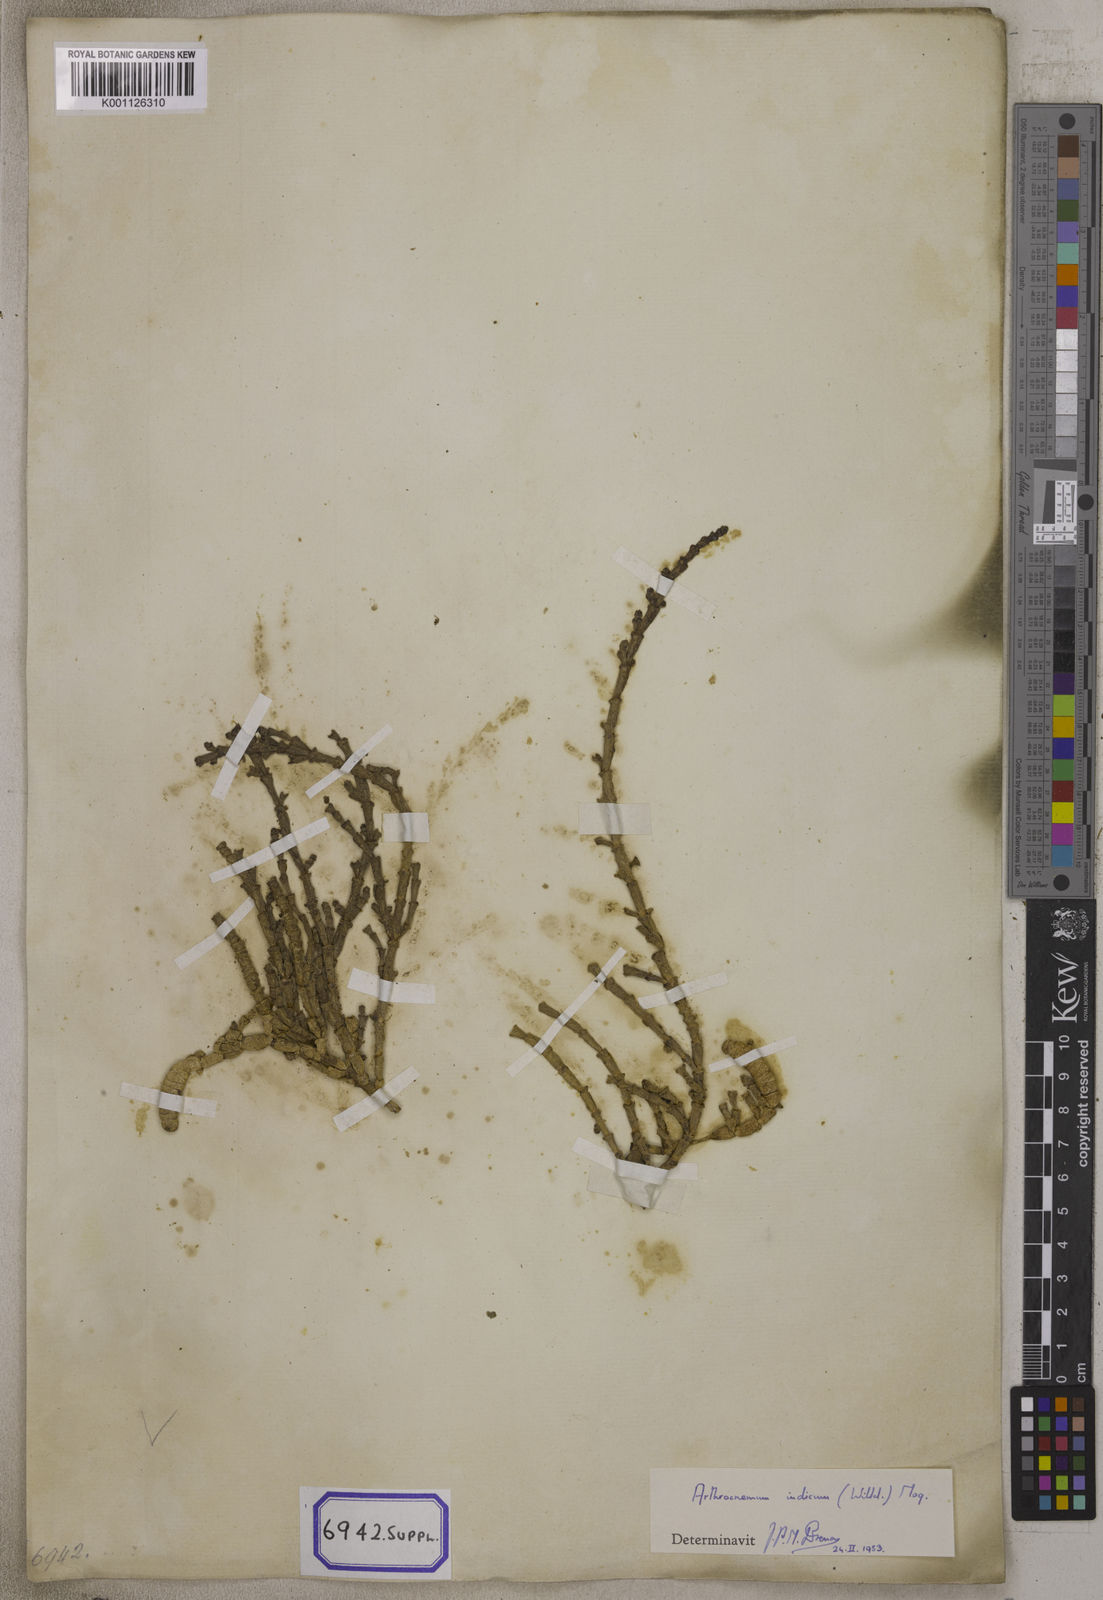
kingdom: Plantae
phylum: Tracheophyta
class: Magnoliopsida
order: Caryophyllales
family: Amaranthaceae
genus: Tecticornia
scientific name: Tecticornia indica
